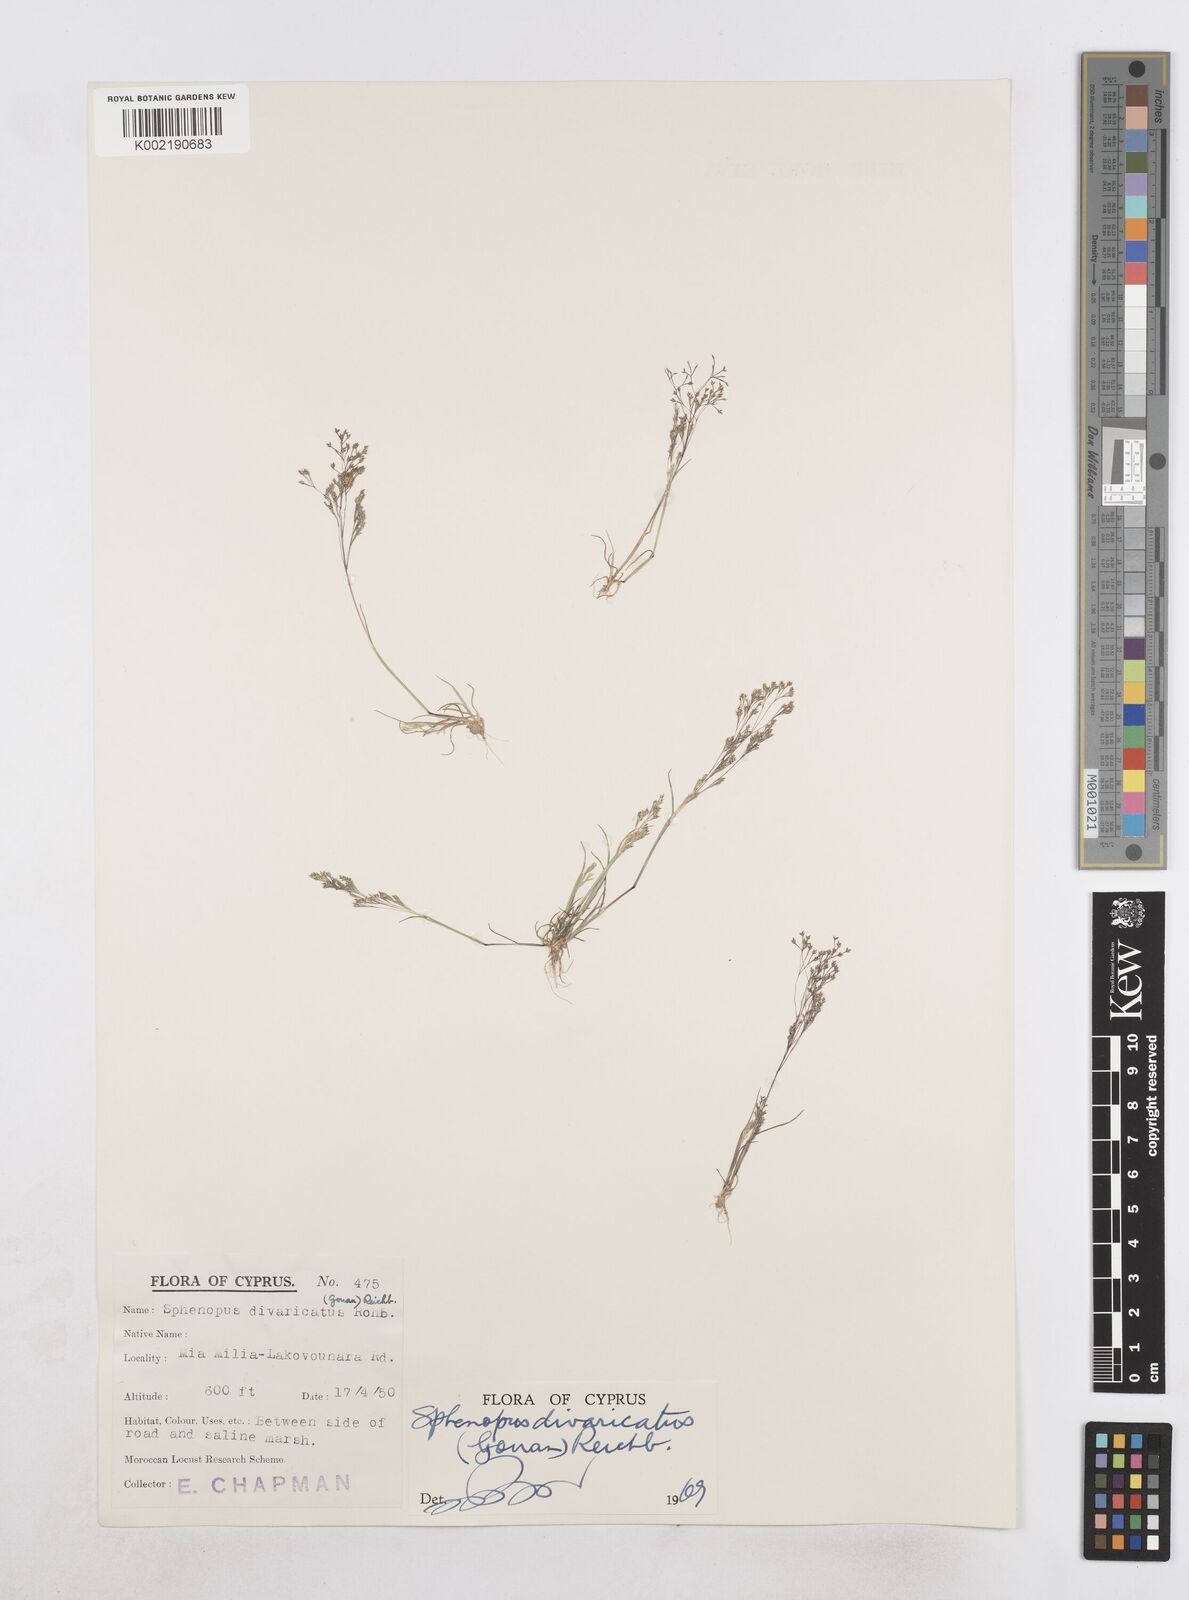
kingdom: Plantae
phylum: Tracheophyta
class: Liliopsida
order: Poales
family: Poaceae
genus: Sphenopus
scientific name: Sphenopus divaricatus
